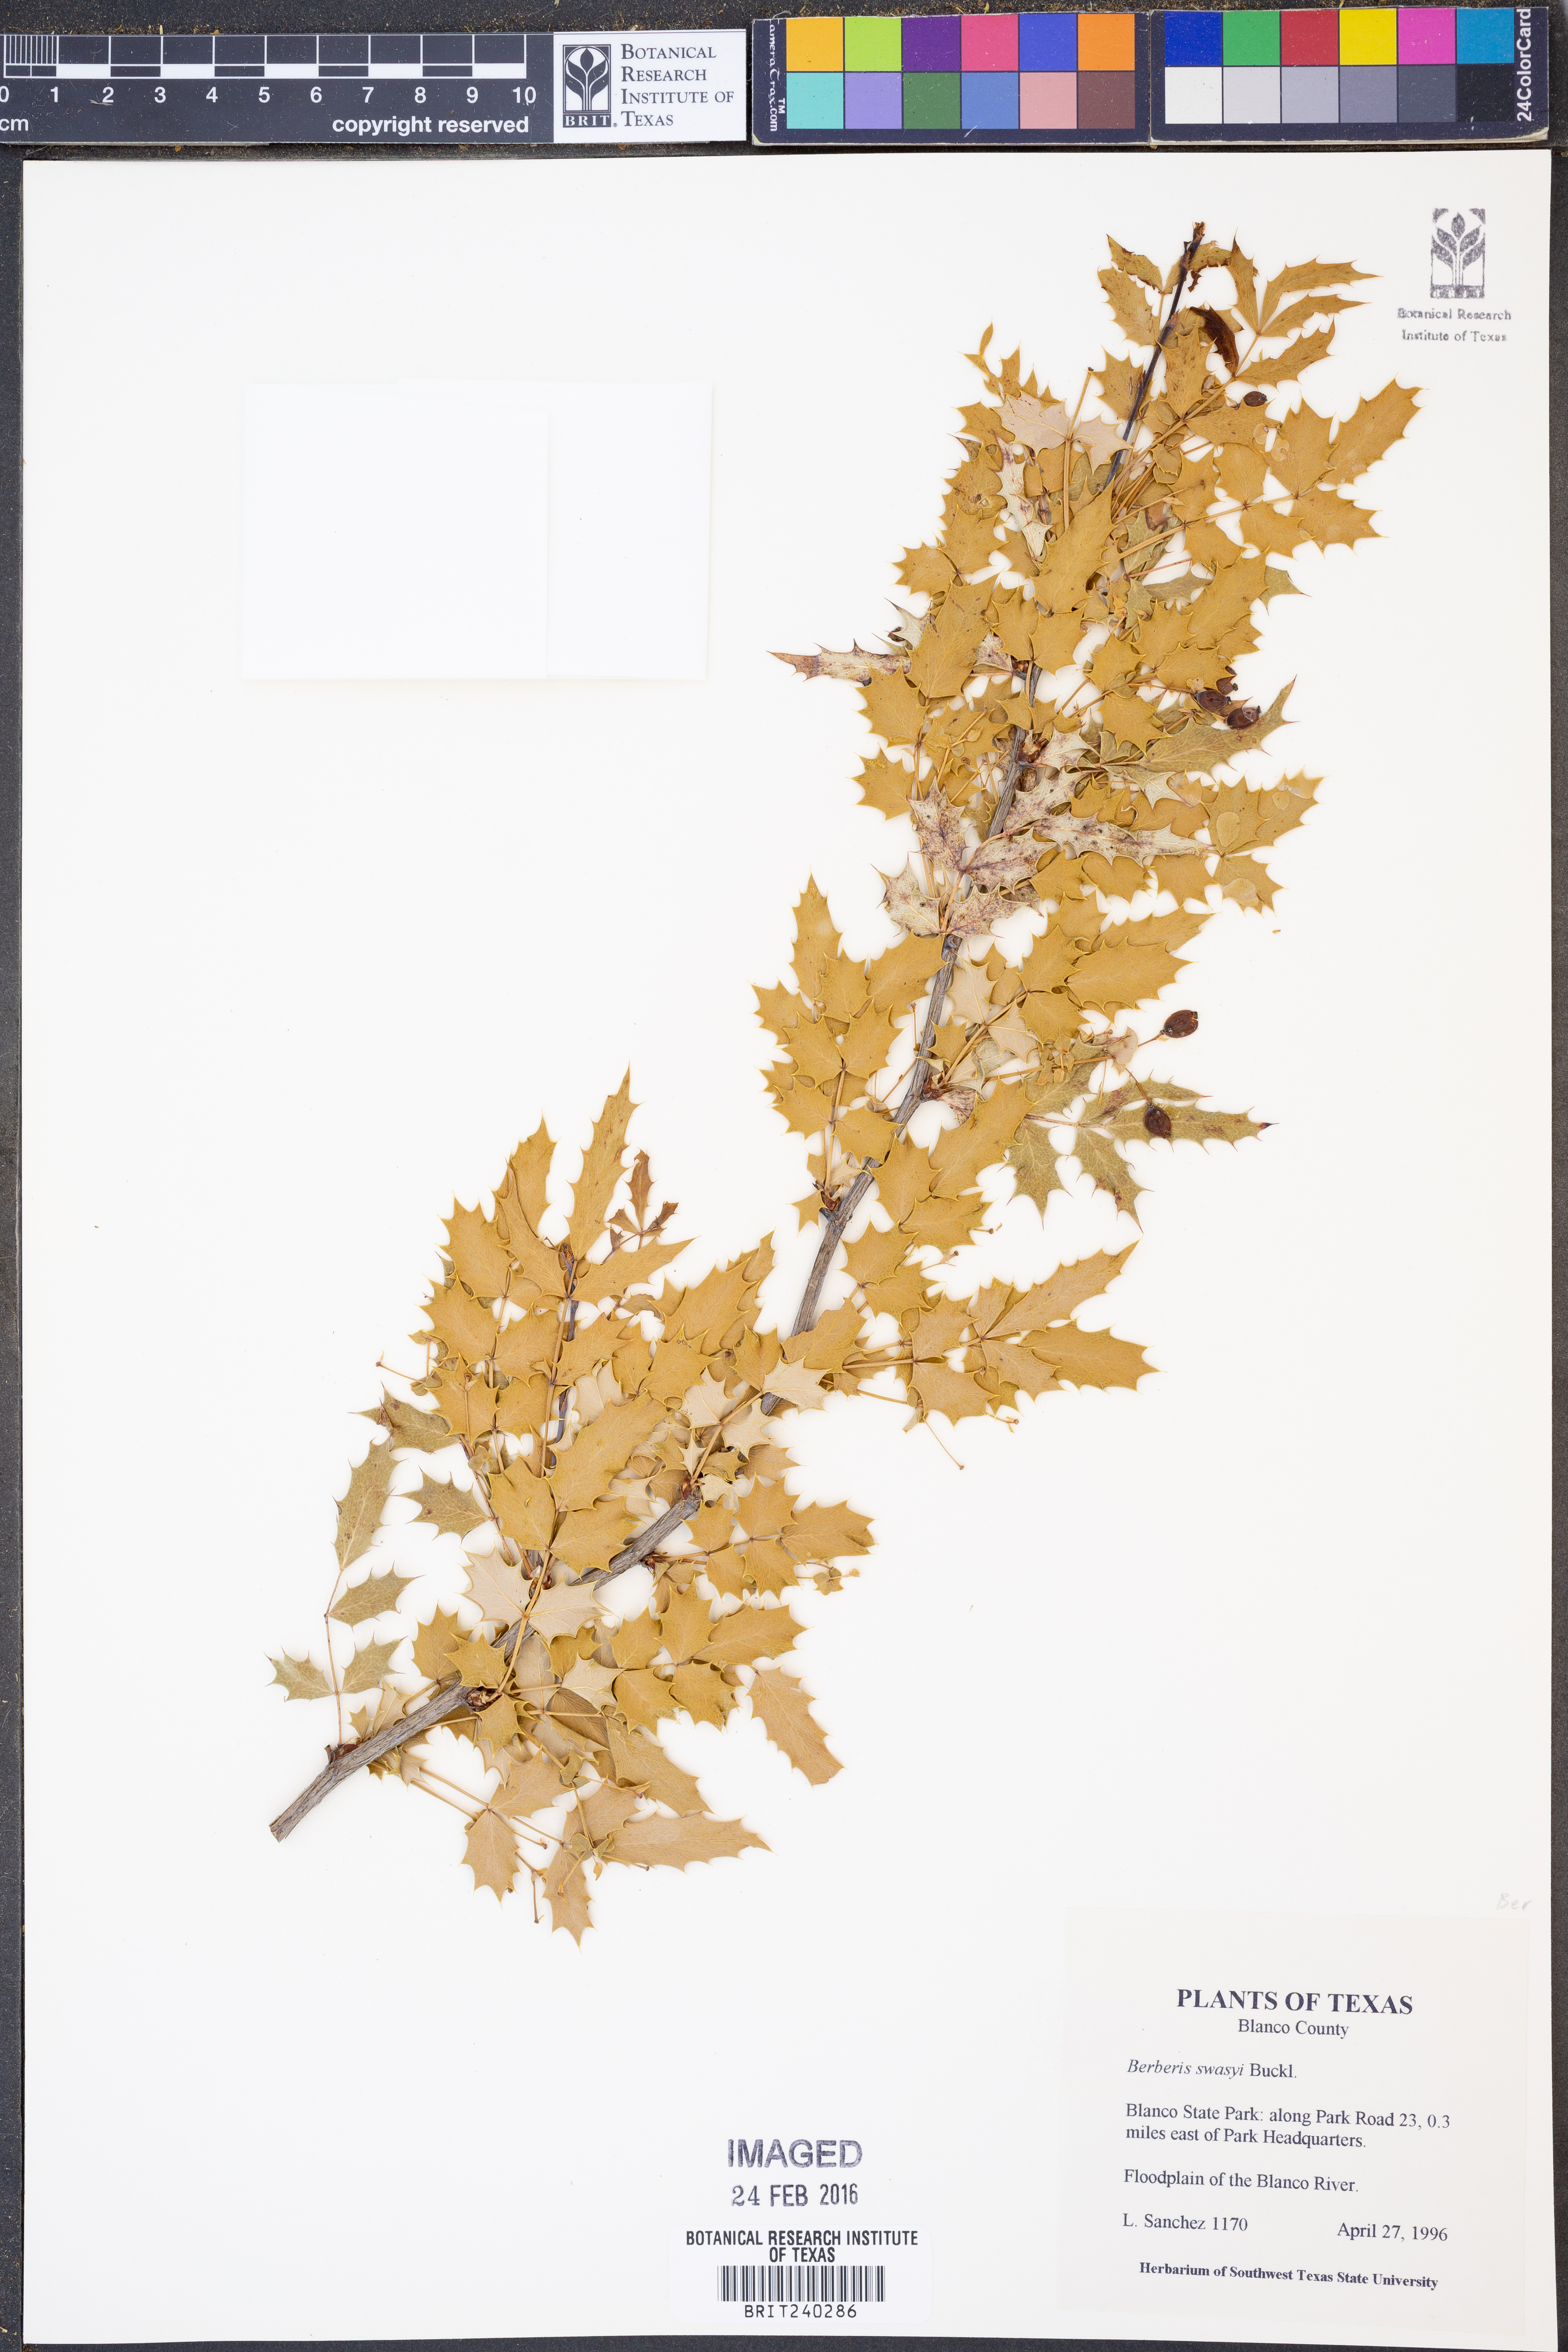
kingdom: Plantae
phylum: Tracheophyta
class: Magnoliopsida
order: Ranunculales
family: Berberidaceae
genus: Berberis
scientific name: Berberis swaseyi
